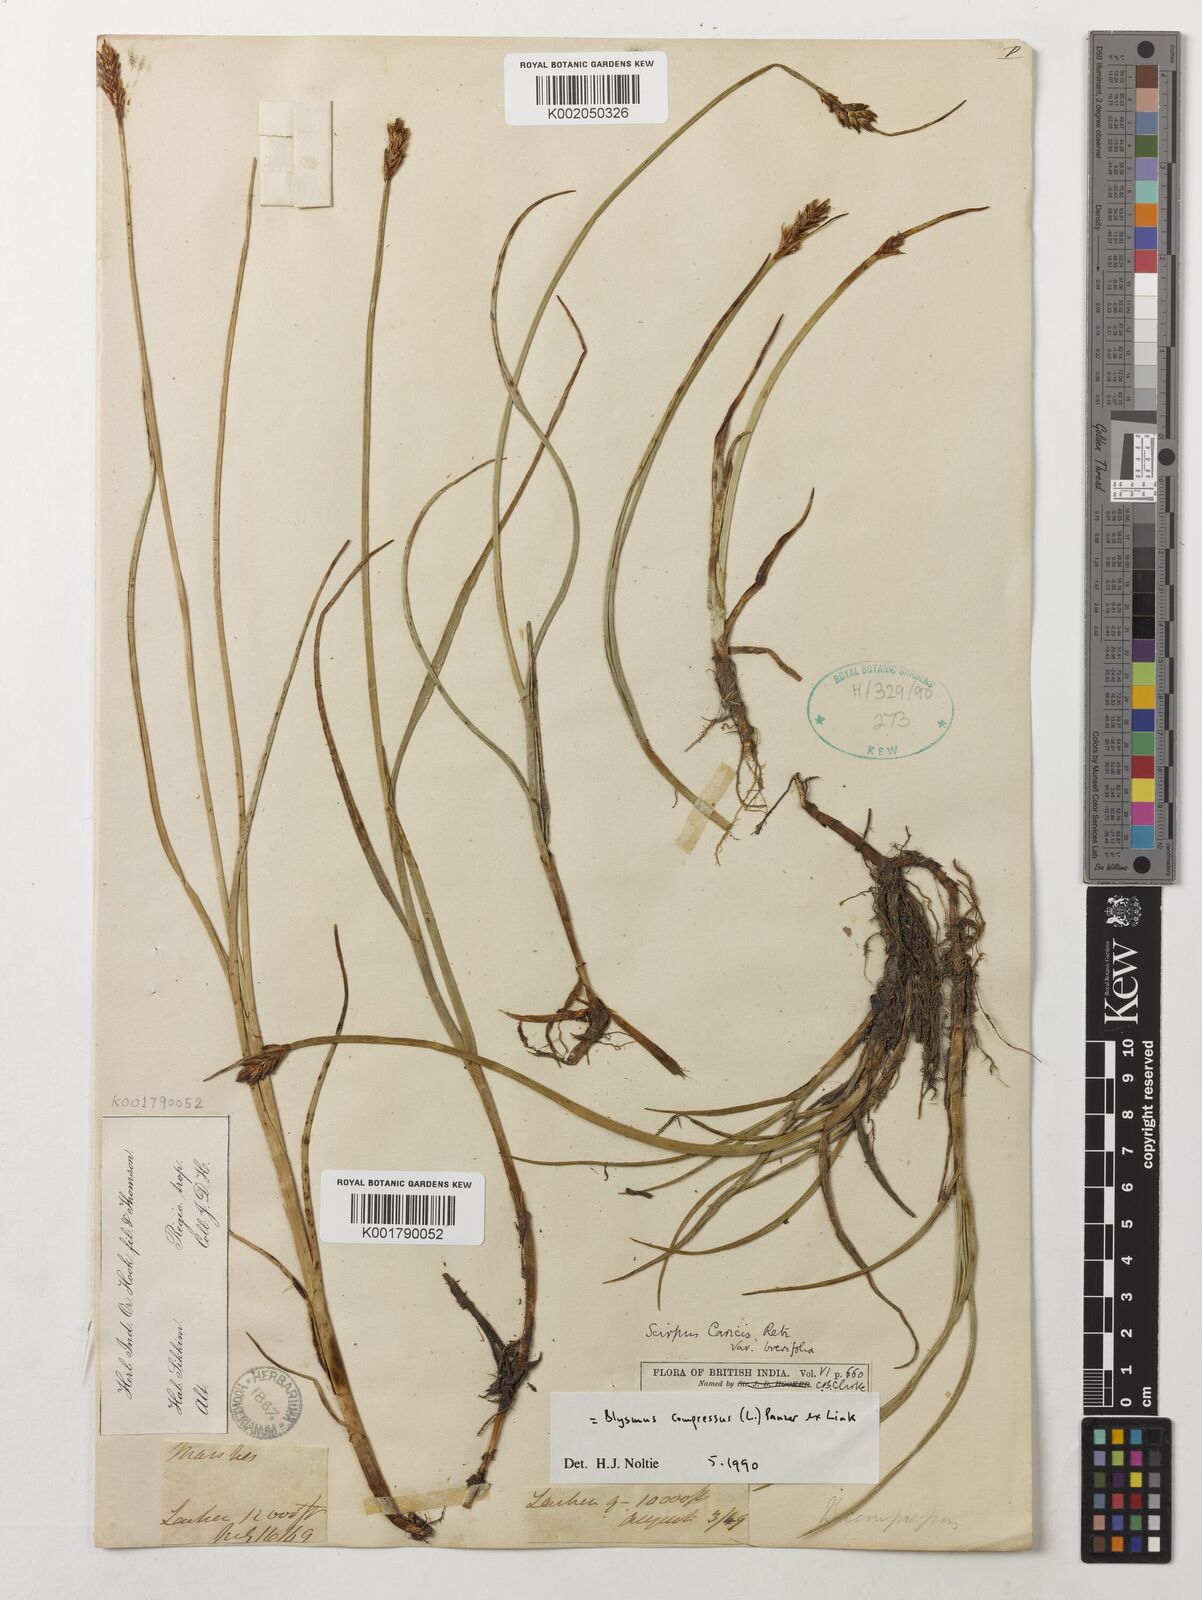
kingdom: Plantae
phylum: Tracheophyta
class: Liliopsida
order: Poales
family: Cyperaceae
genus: Blysmus
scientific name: Blysmus compressus
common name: Flat-sedge
